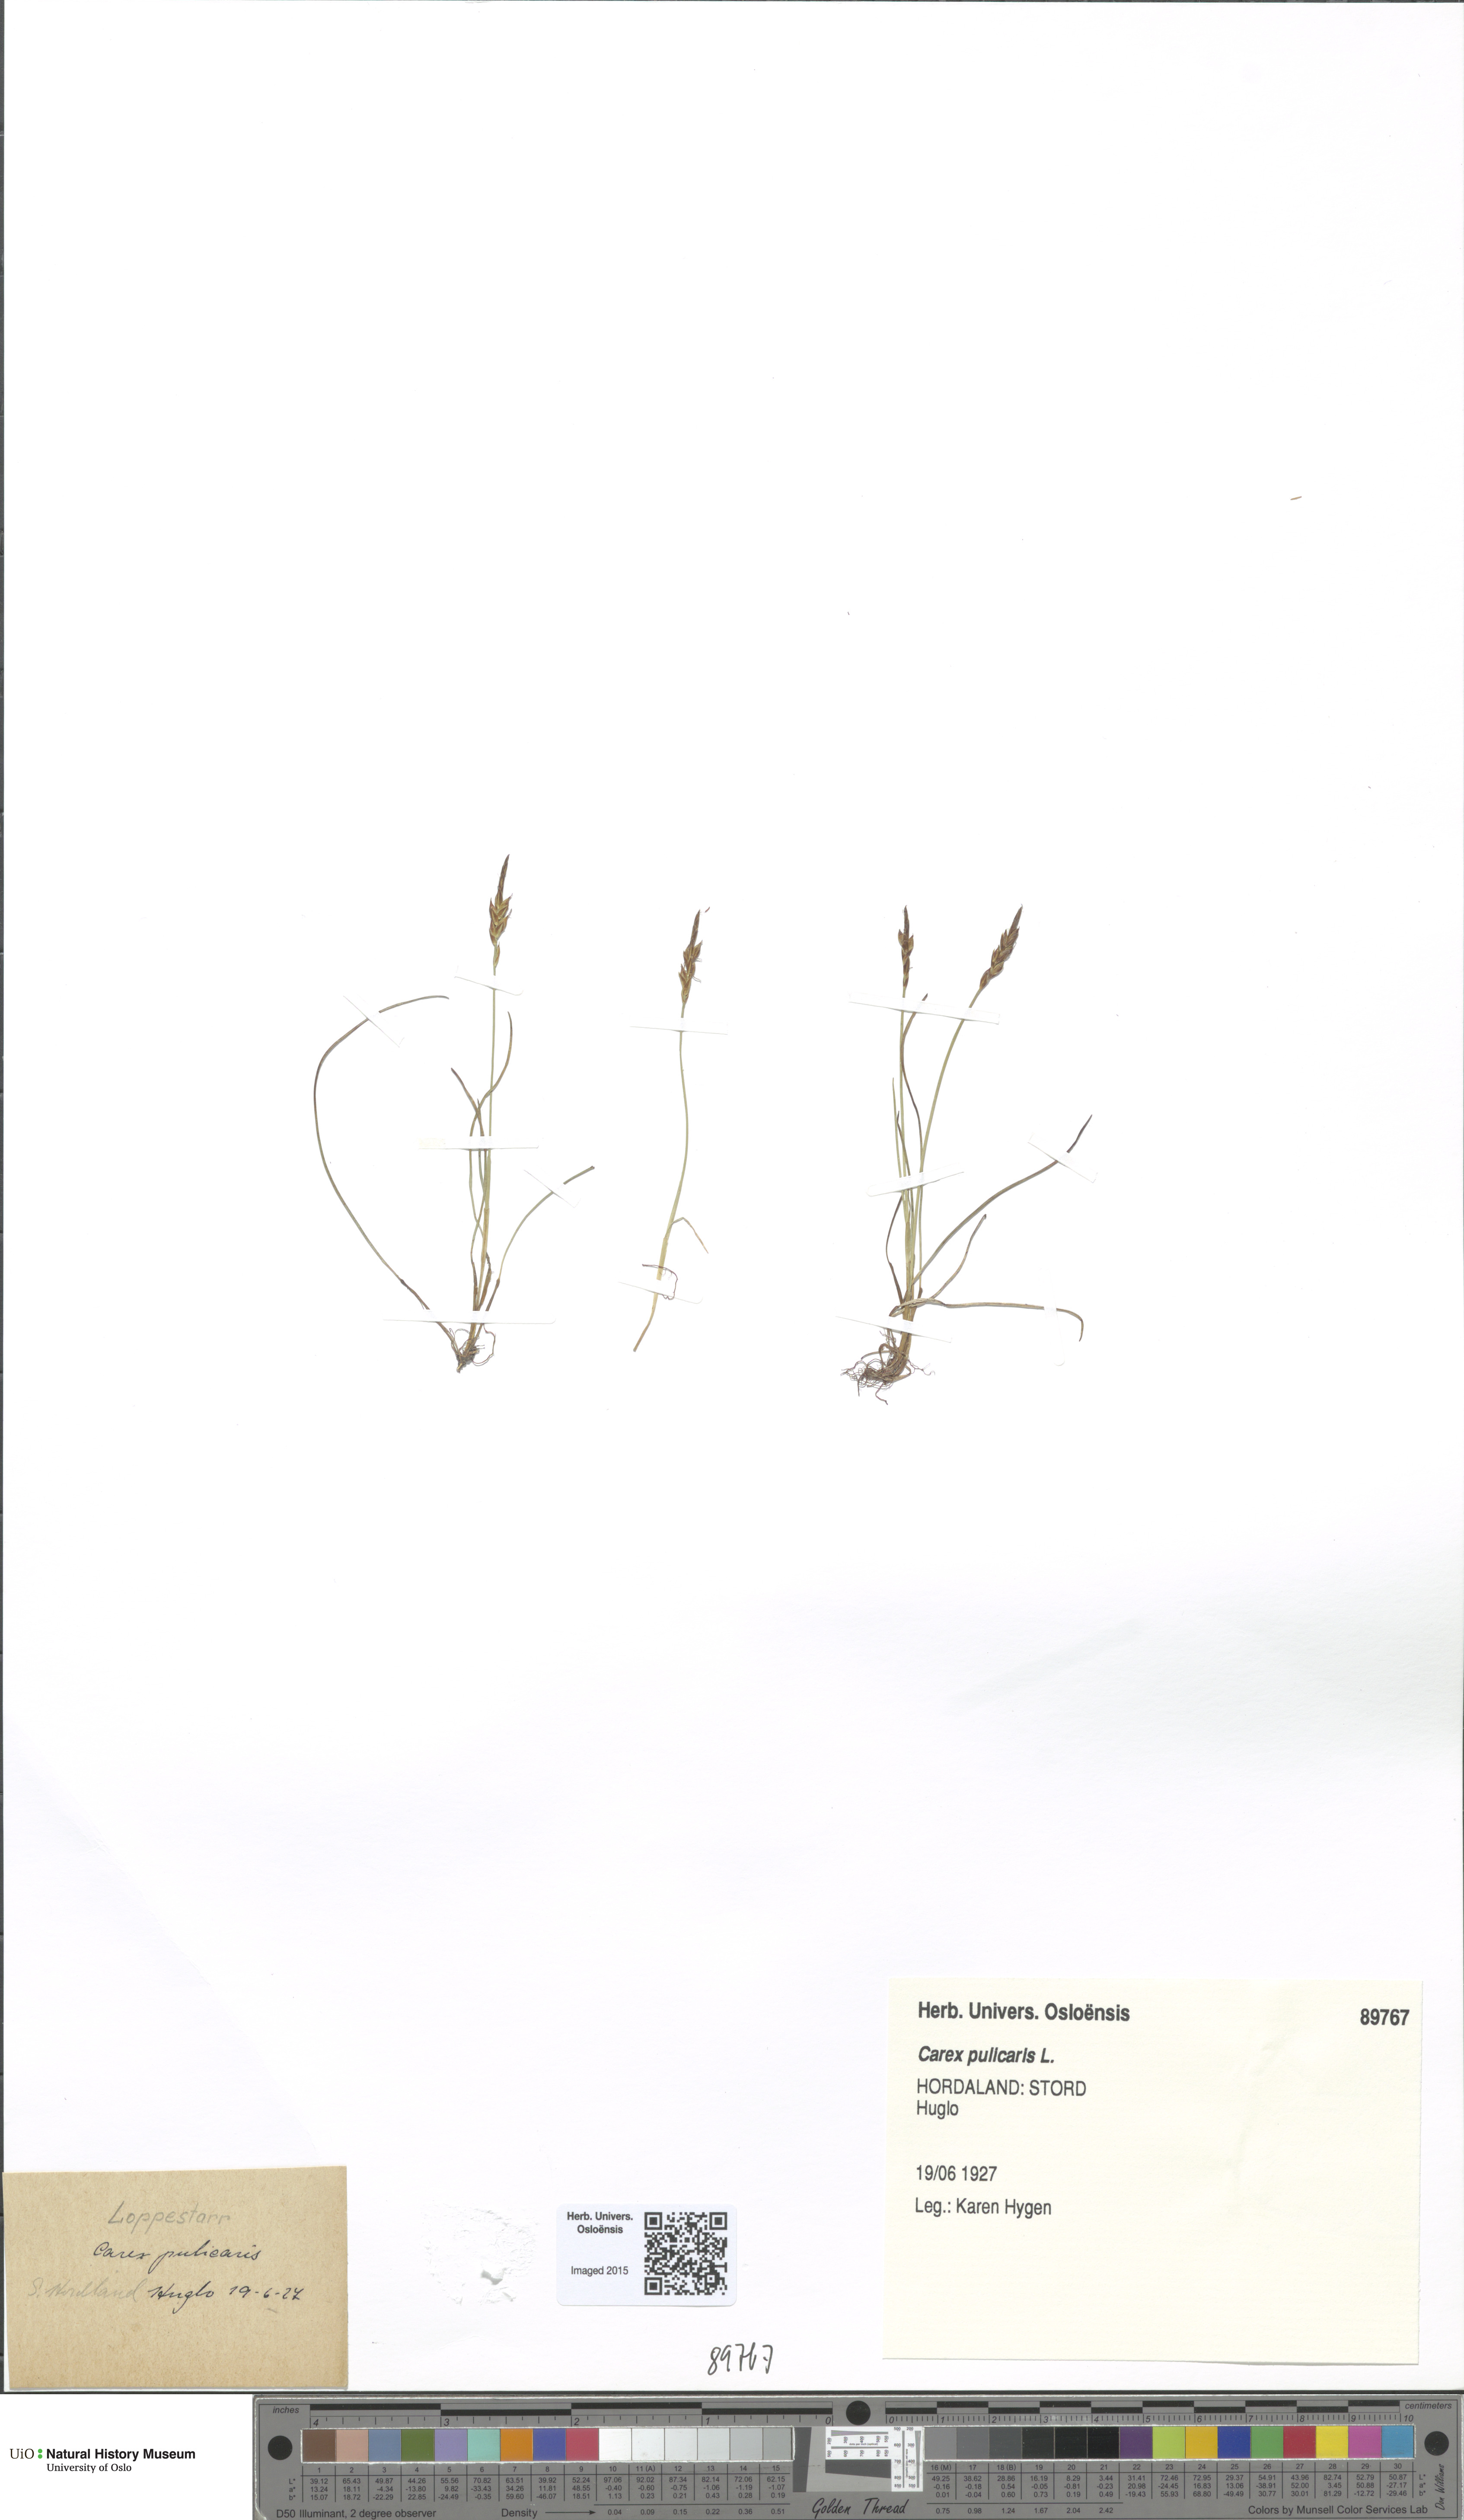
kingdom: Plantae
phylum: Tracheophyta
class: Liliopsida
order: Poales
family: Cyperaceae
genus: Carex
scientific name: Carex pulicaris
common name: Flea sedge
